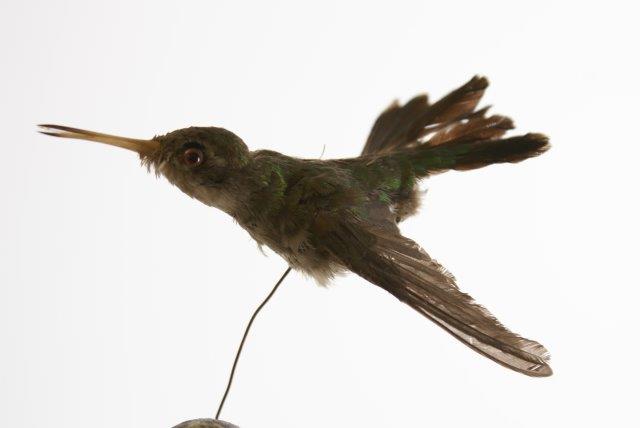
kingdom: Animalia
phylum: Chordata
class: Aves
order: Apodiformes
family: Trochilidae
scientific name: Trochilidae
